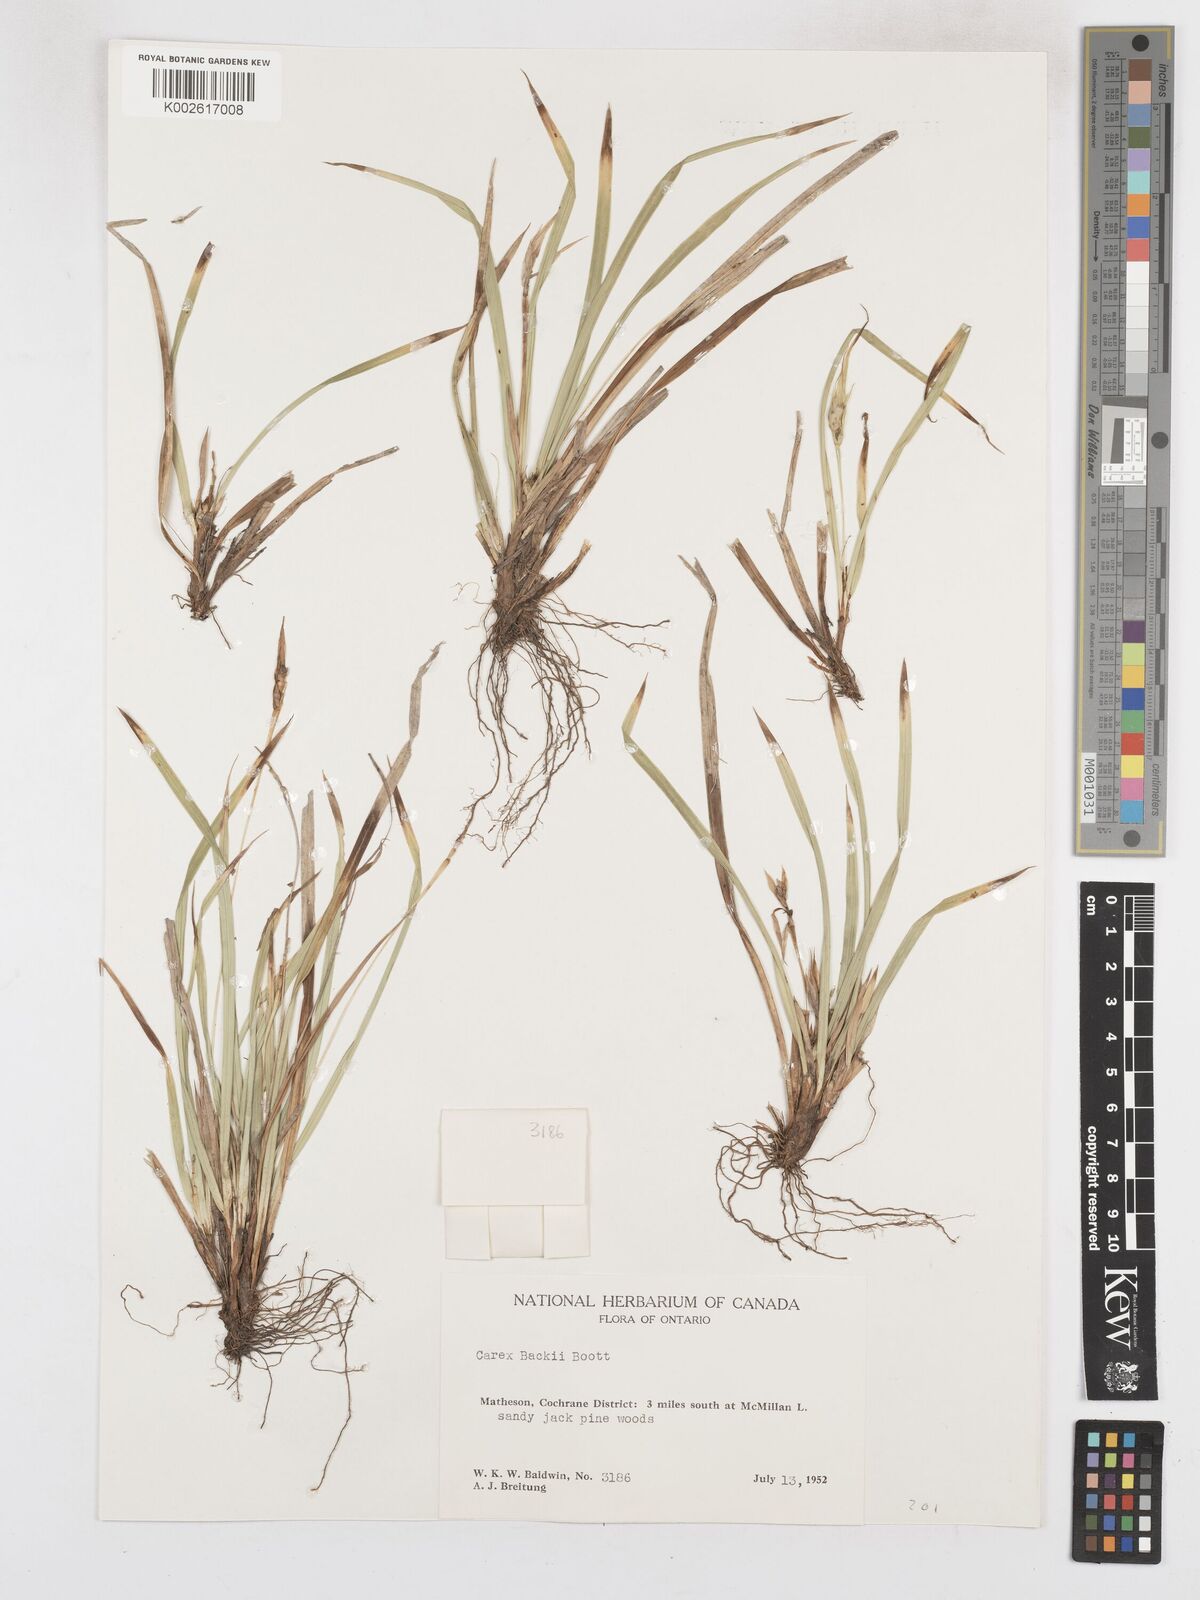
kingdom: Plantae
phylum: Tracheophyta
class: Liliopsida
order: Poales
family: Cyperaceae
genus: Carex
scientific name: Carex backii
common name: Back's sedge
